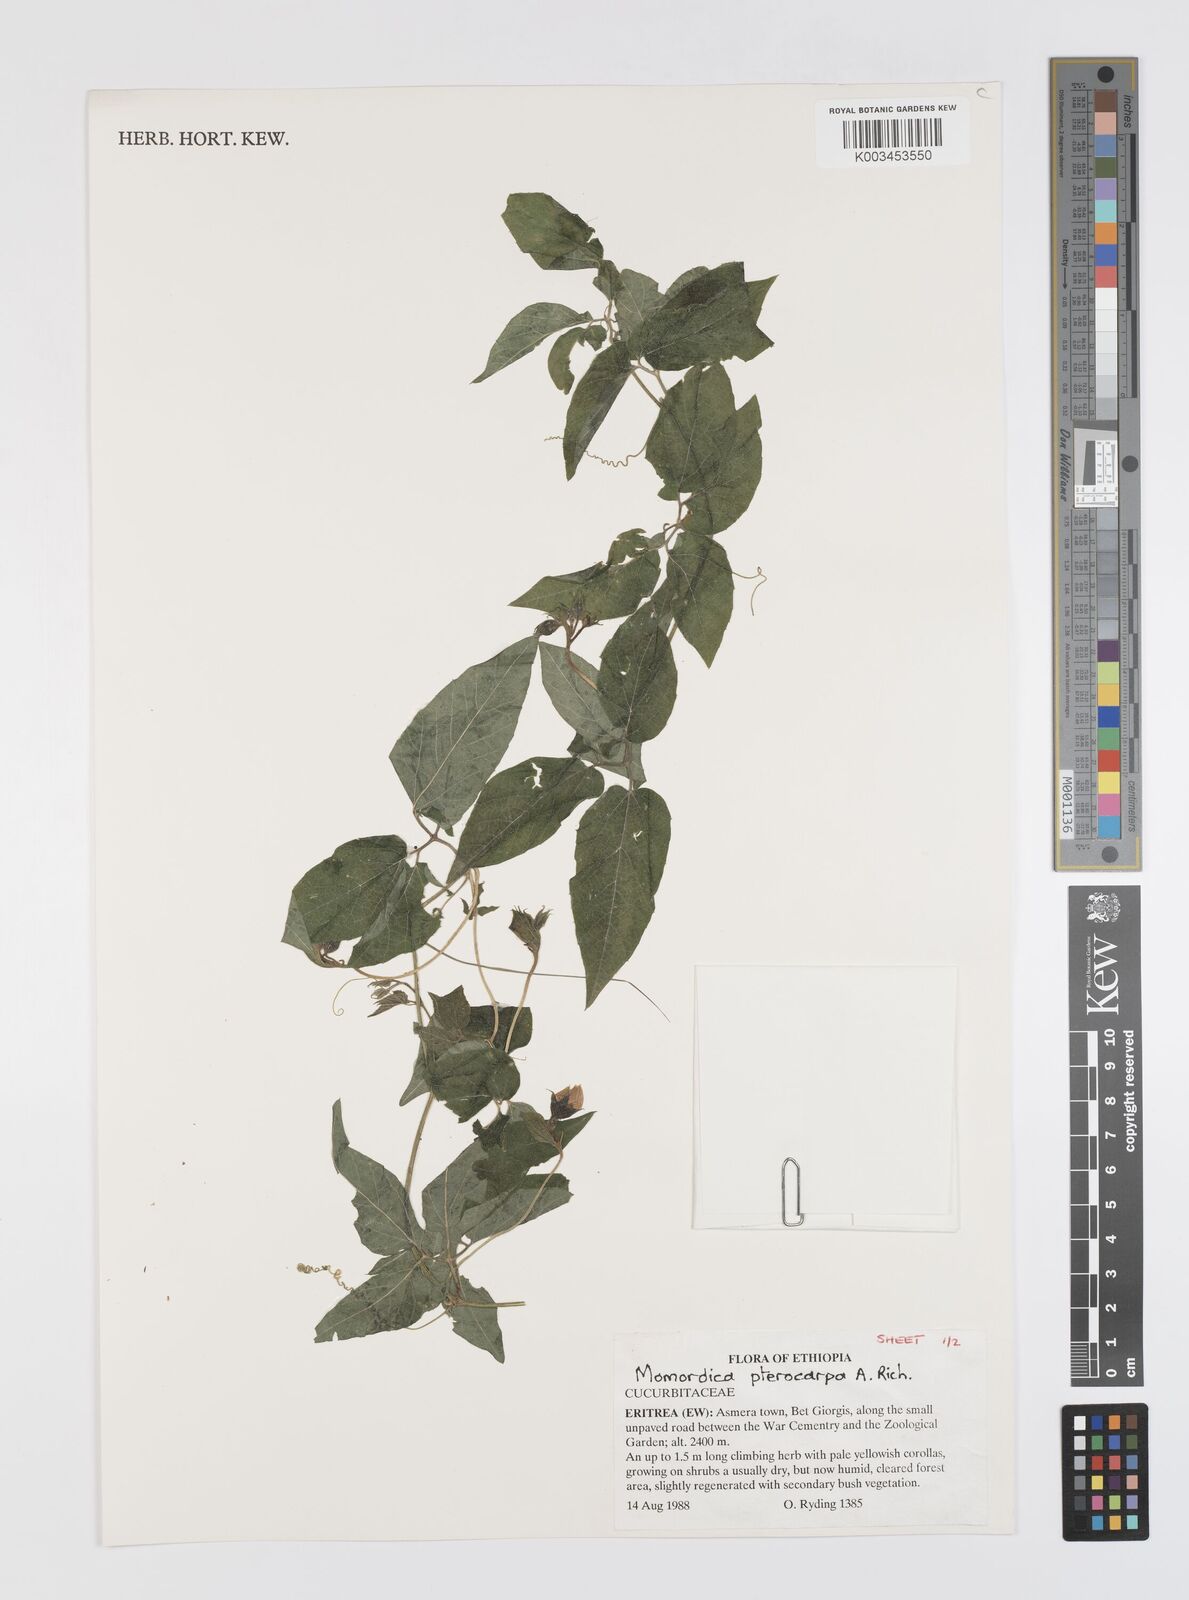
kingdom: Plantae
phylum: Tracheophyta
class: Magnoliopsida
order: Cucurbitales
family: Cucurbitaceae
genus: Momordica
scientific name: Momordica pterocarpa
